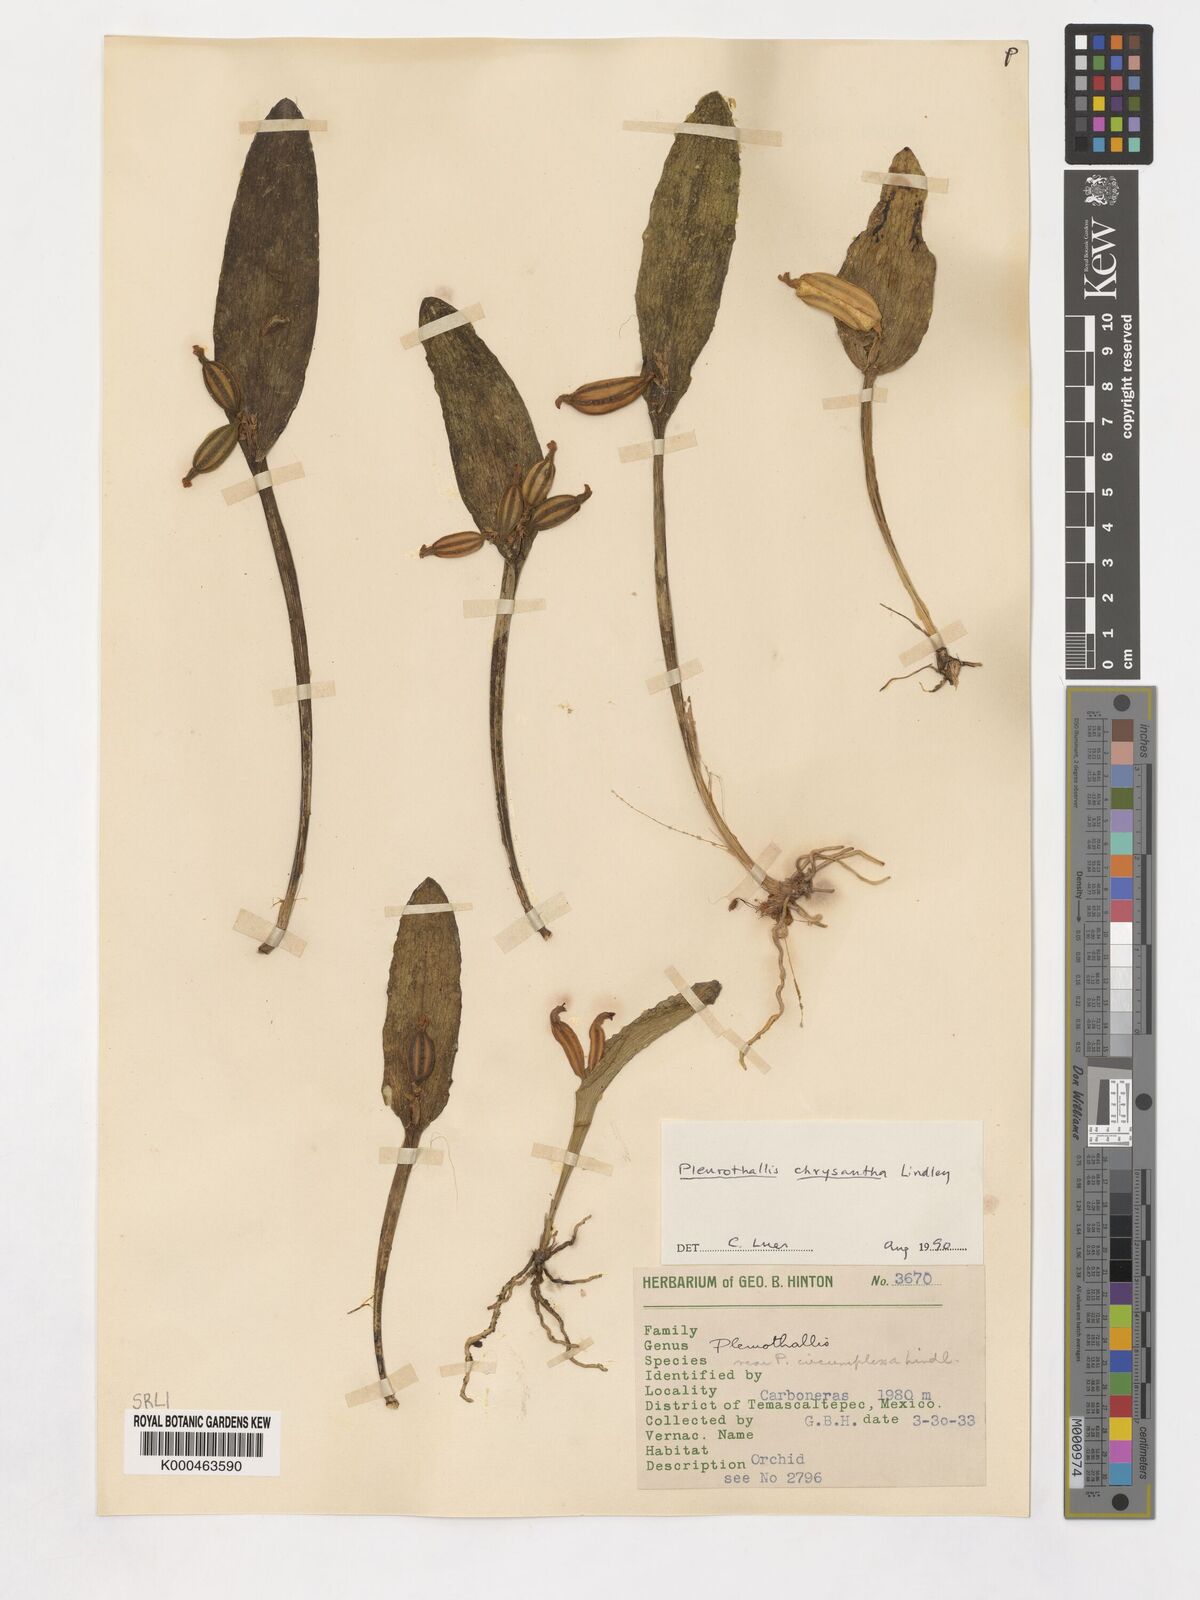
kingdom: Plantae
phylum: Tracheophyta
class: Liliopsida
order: Asparagales
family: Orchidaceae
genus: Acianthera
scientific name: Acianthera chrysantha
